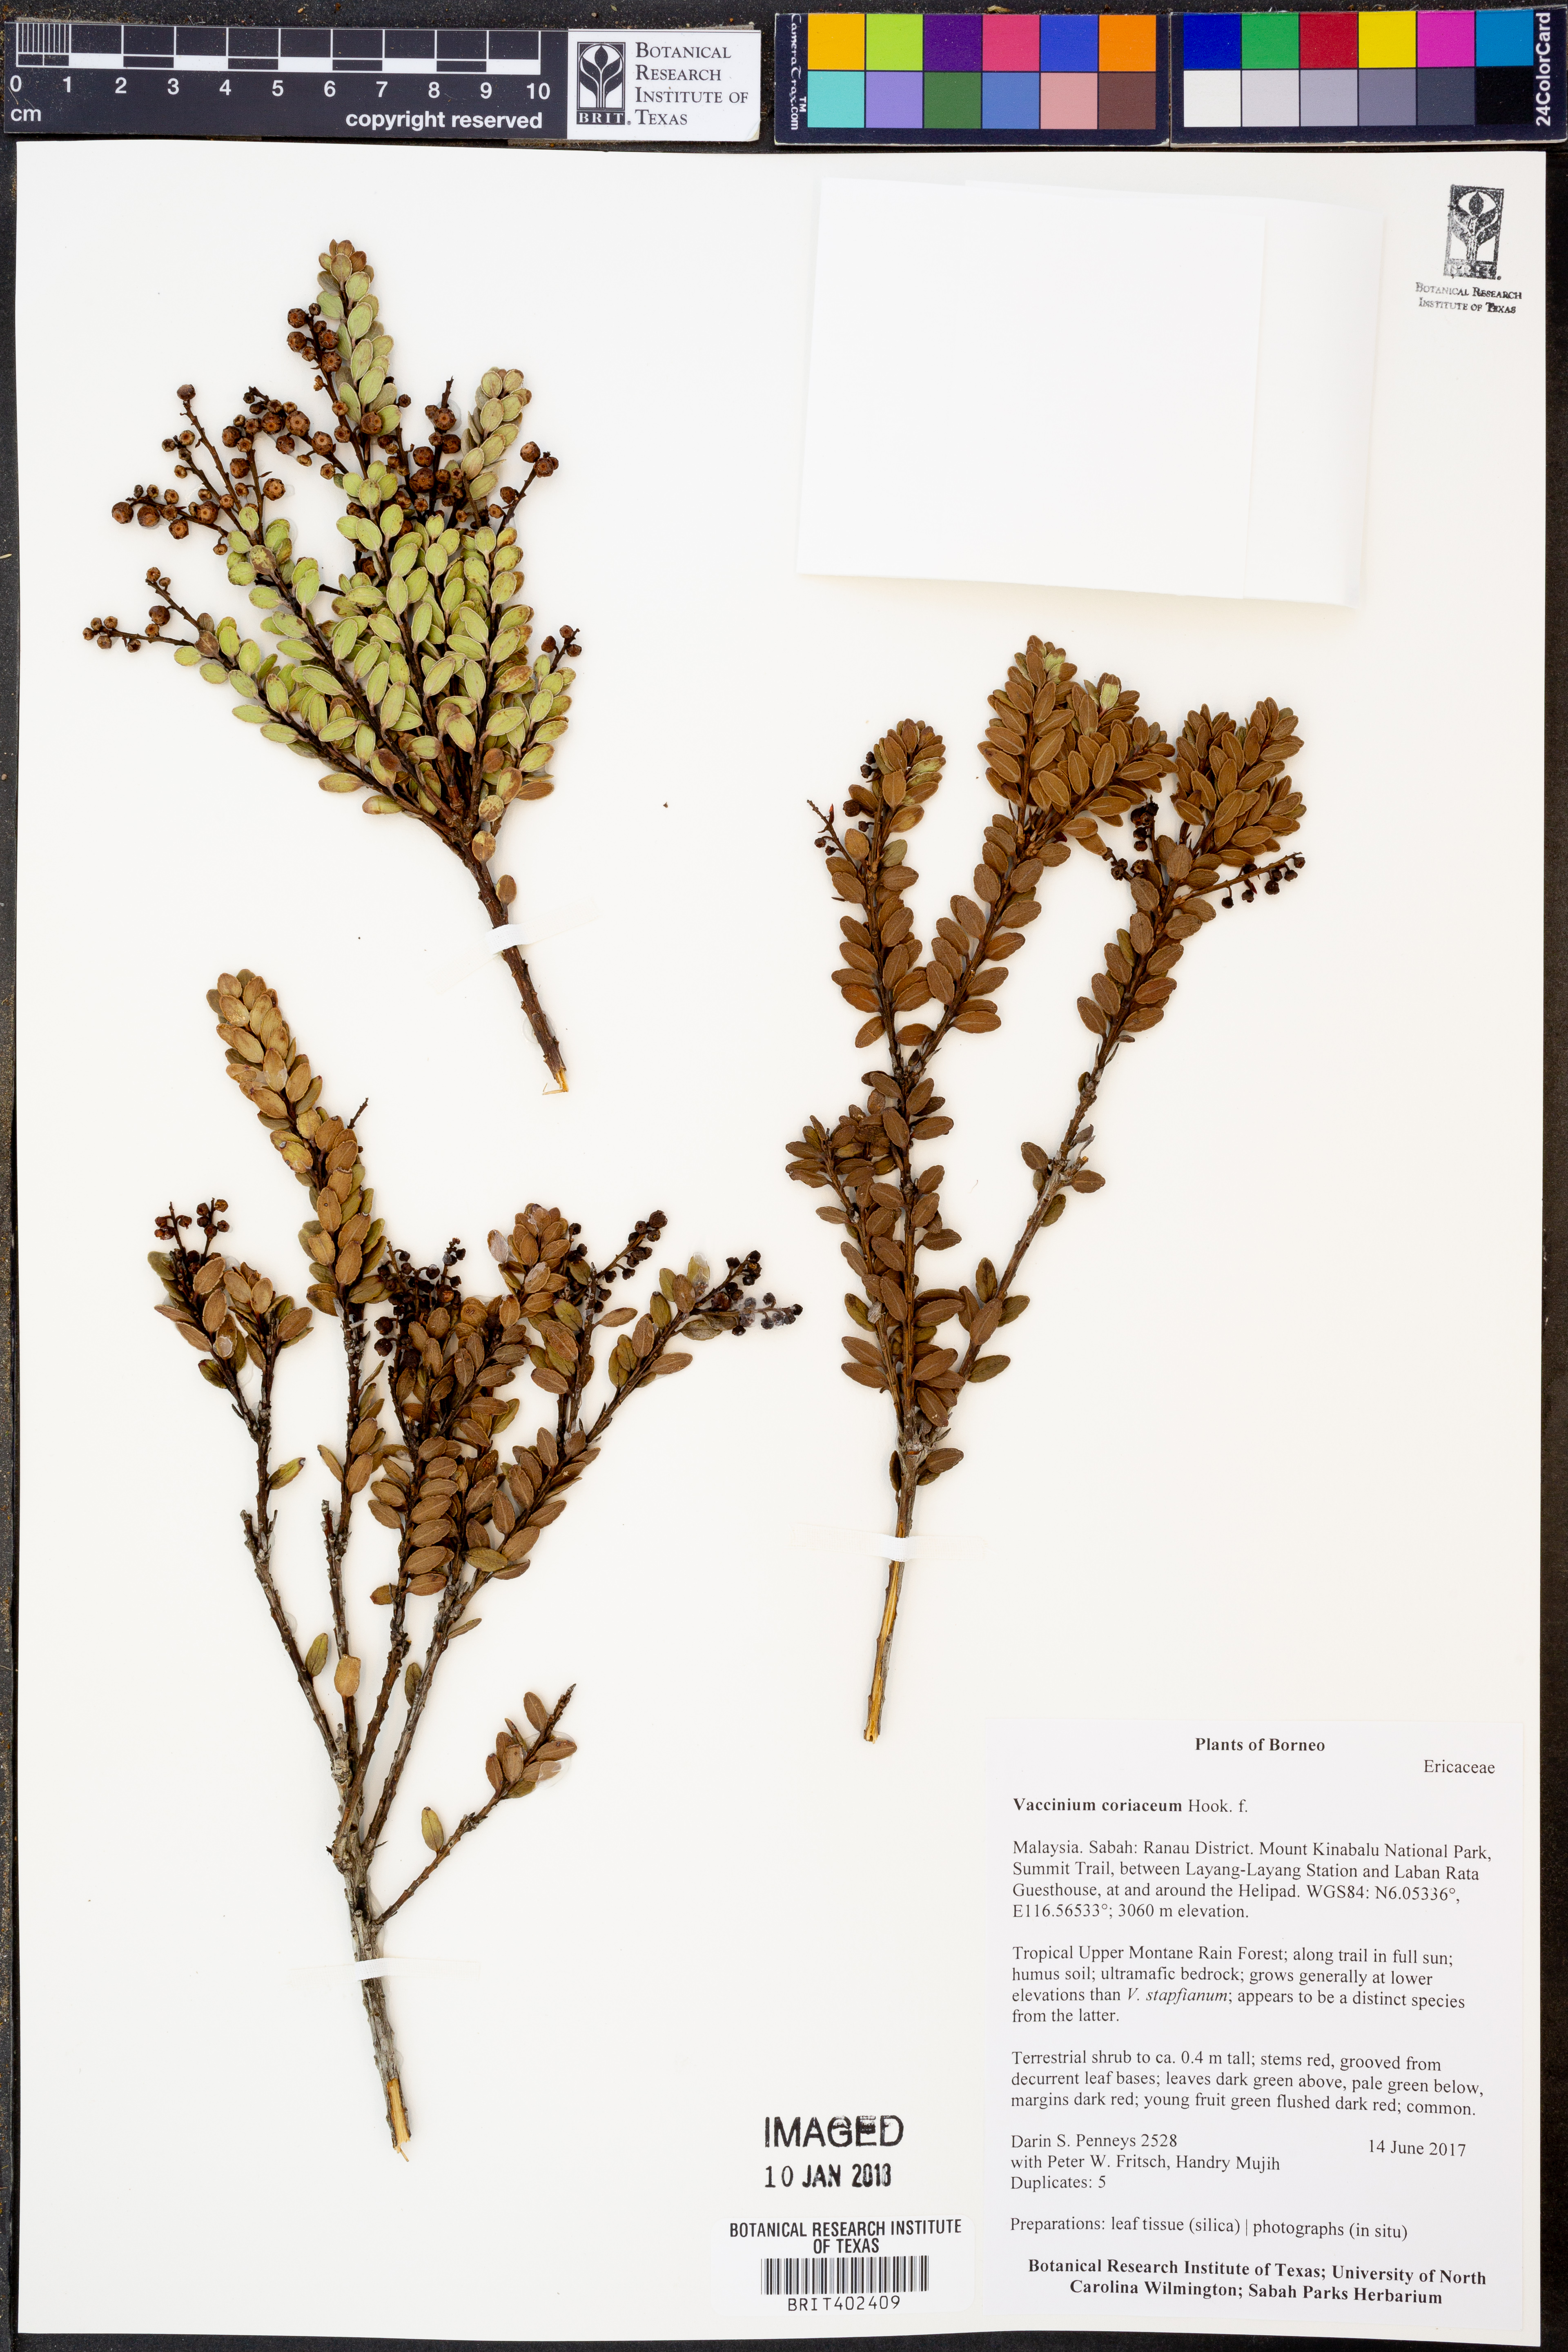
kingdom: Plantae
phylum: Tracheophyta
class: Magnoliopsida
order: Ericales
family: Ericaceae
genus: Vaccinium
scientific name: Vaccinium coriaceum
